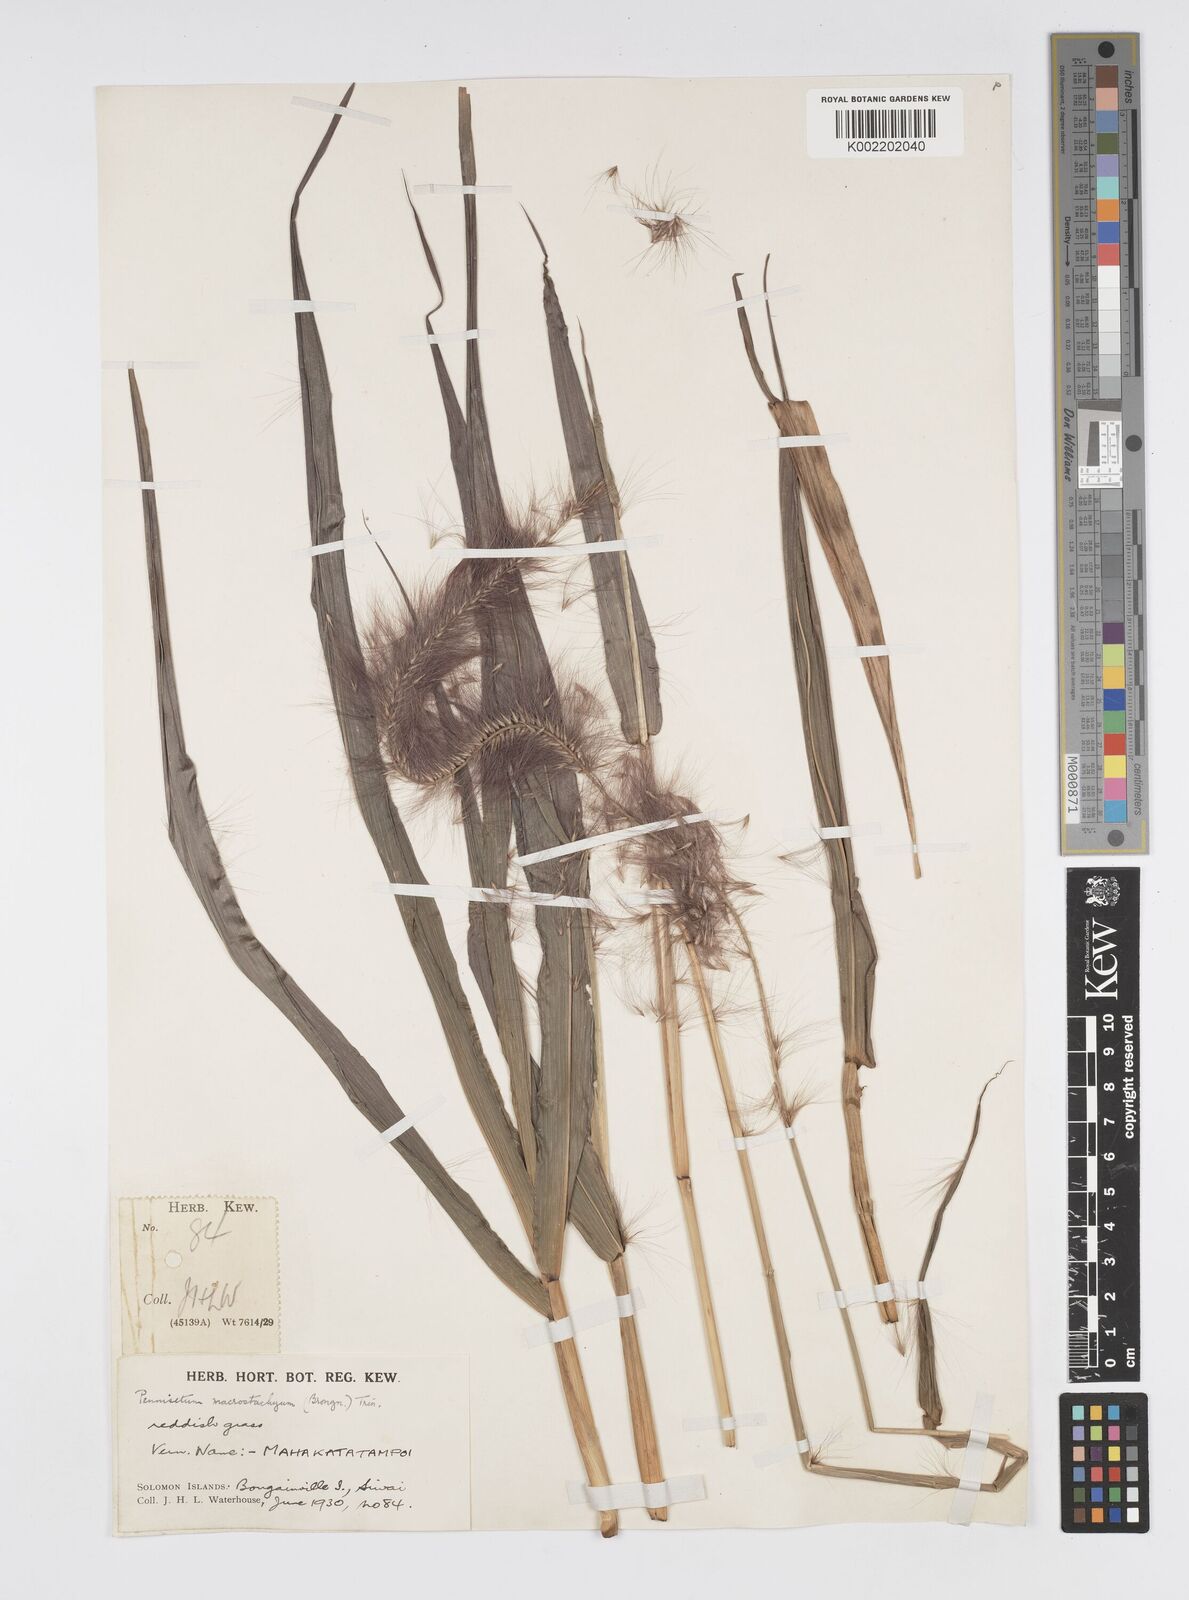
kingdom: Plantae
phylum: Tracheophyta
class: Liliopsida
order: Poales
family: Poaceae
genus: Cenchrus
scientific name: Cenchrus purpureus
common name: Elephant grass
